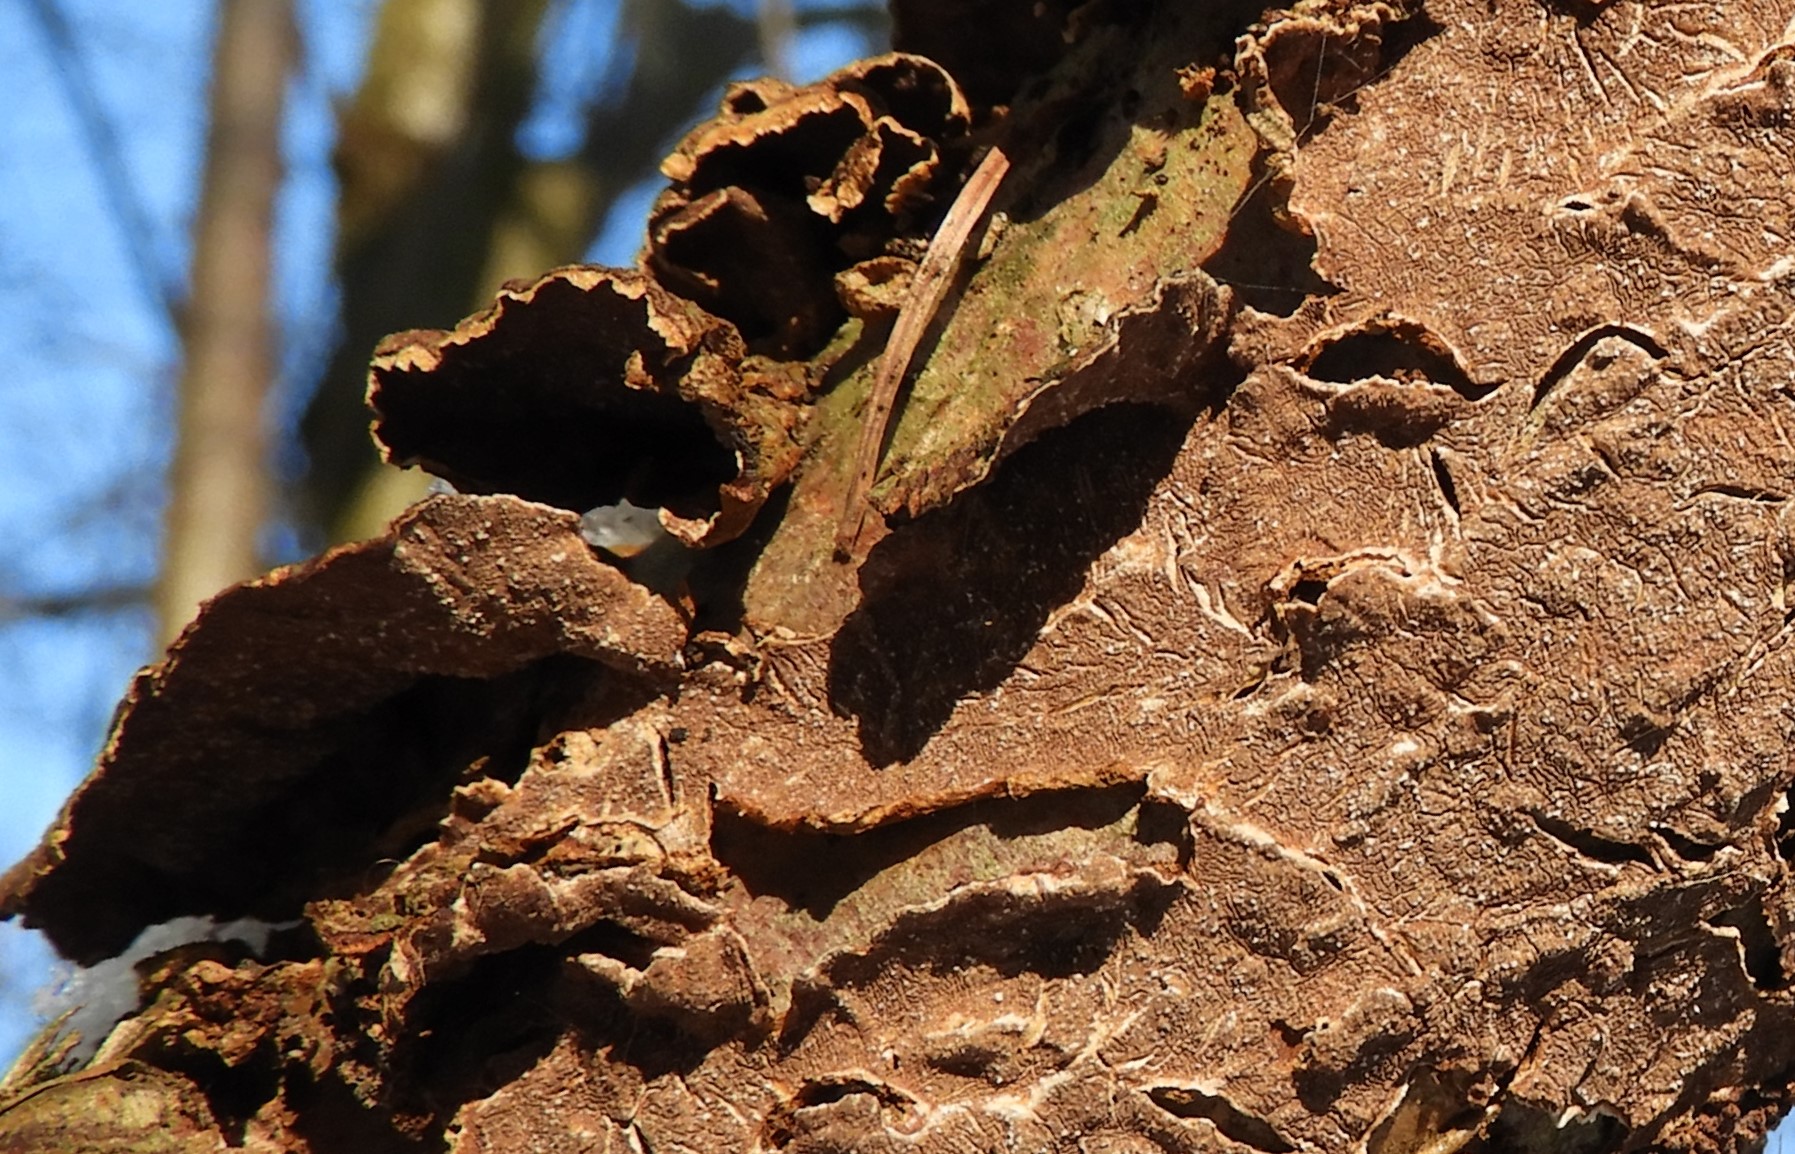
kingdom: Fungi
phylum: Basidiomycota
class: Agaricomycetes
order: Hymenochaetales
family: Hymenochaetaceae
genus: Hydnoporia
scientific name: Hydnoporia tabacina
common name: tobaksbrun ruslædersvamp
